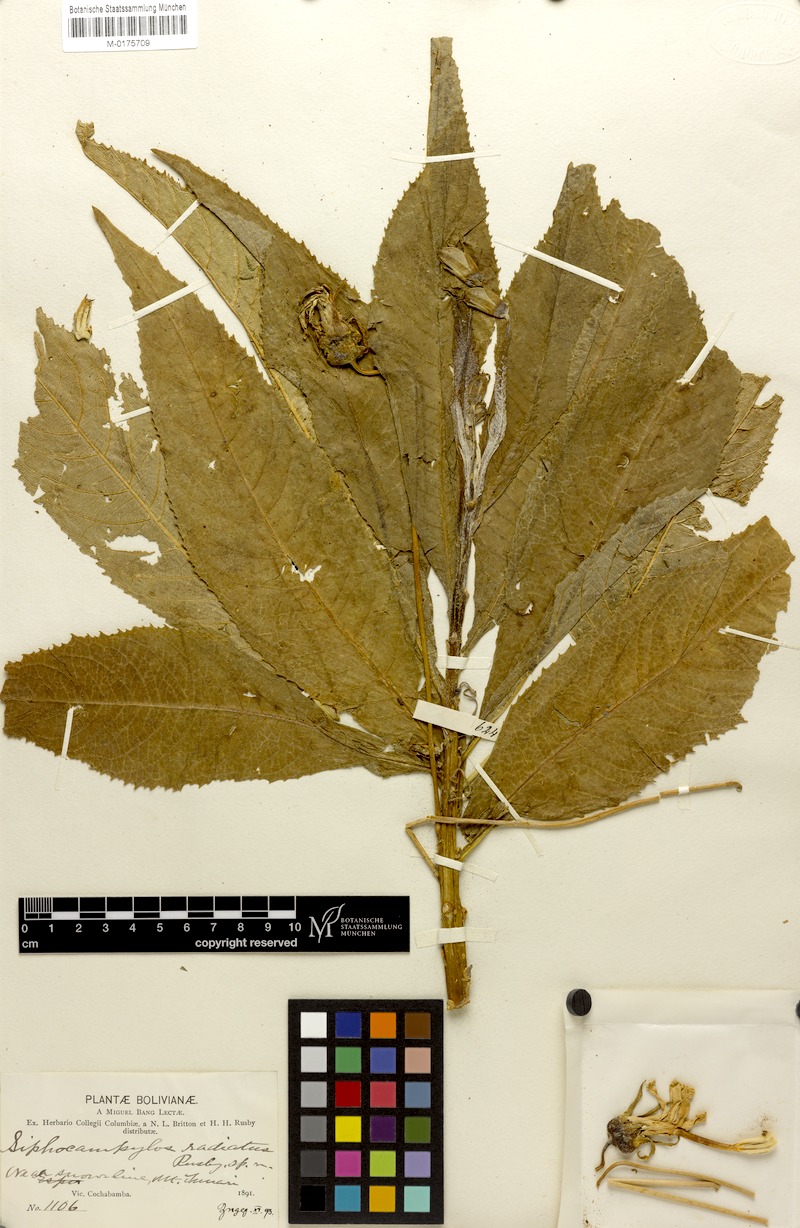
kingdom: Plantae
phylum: Tracheophyta
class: Magnoliopsida
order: Asterales
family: Campanulaceae
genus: Siphocampylus
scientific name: Siphocampylus radiatus
